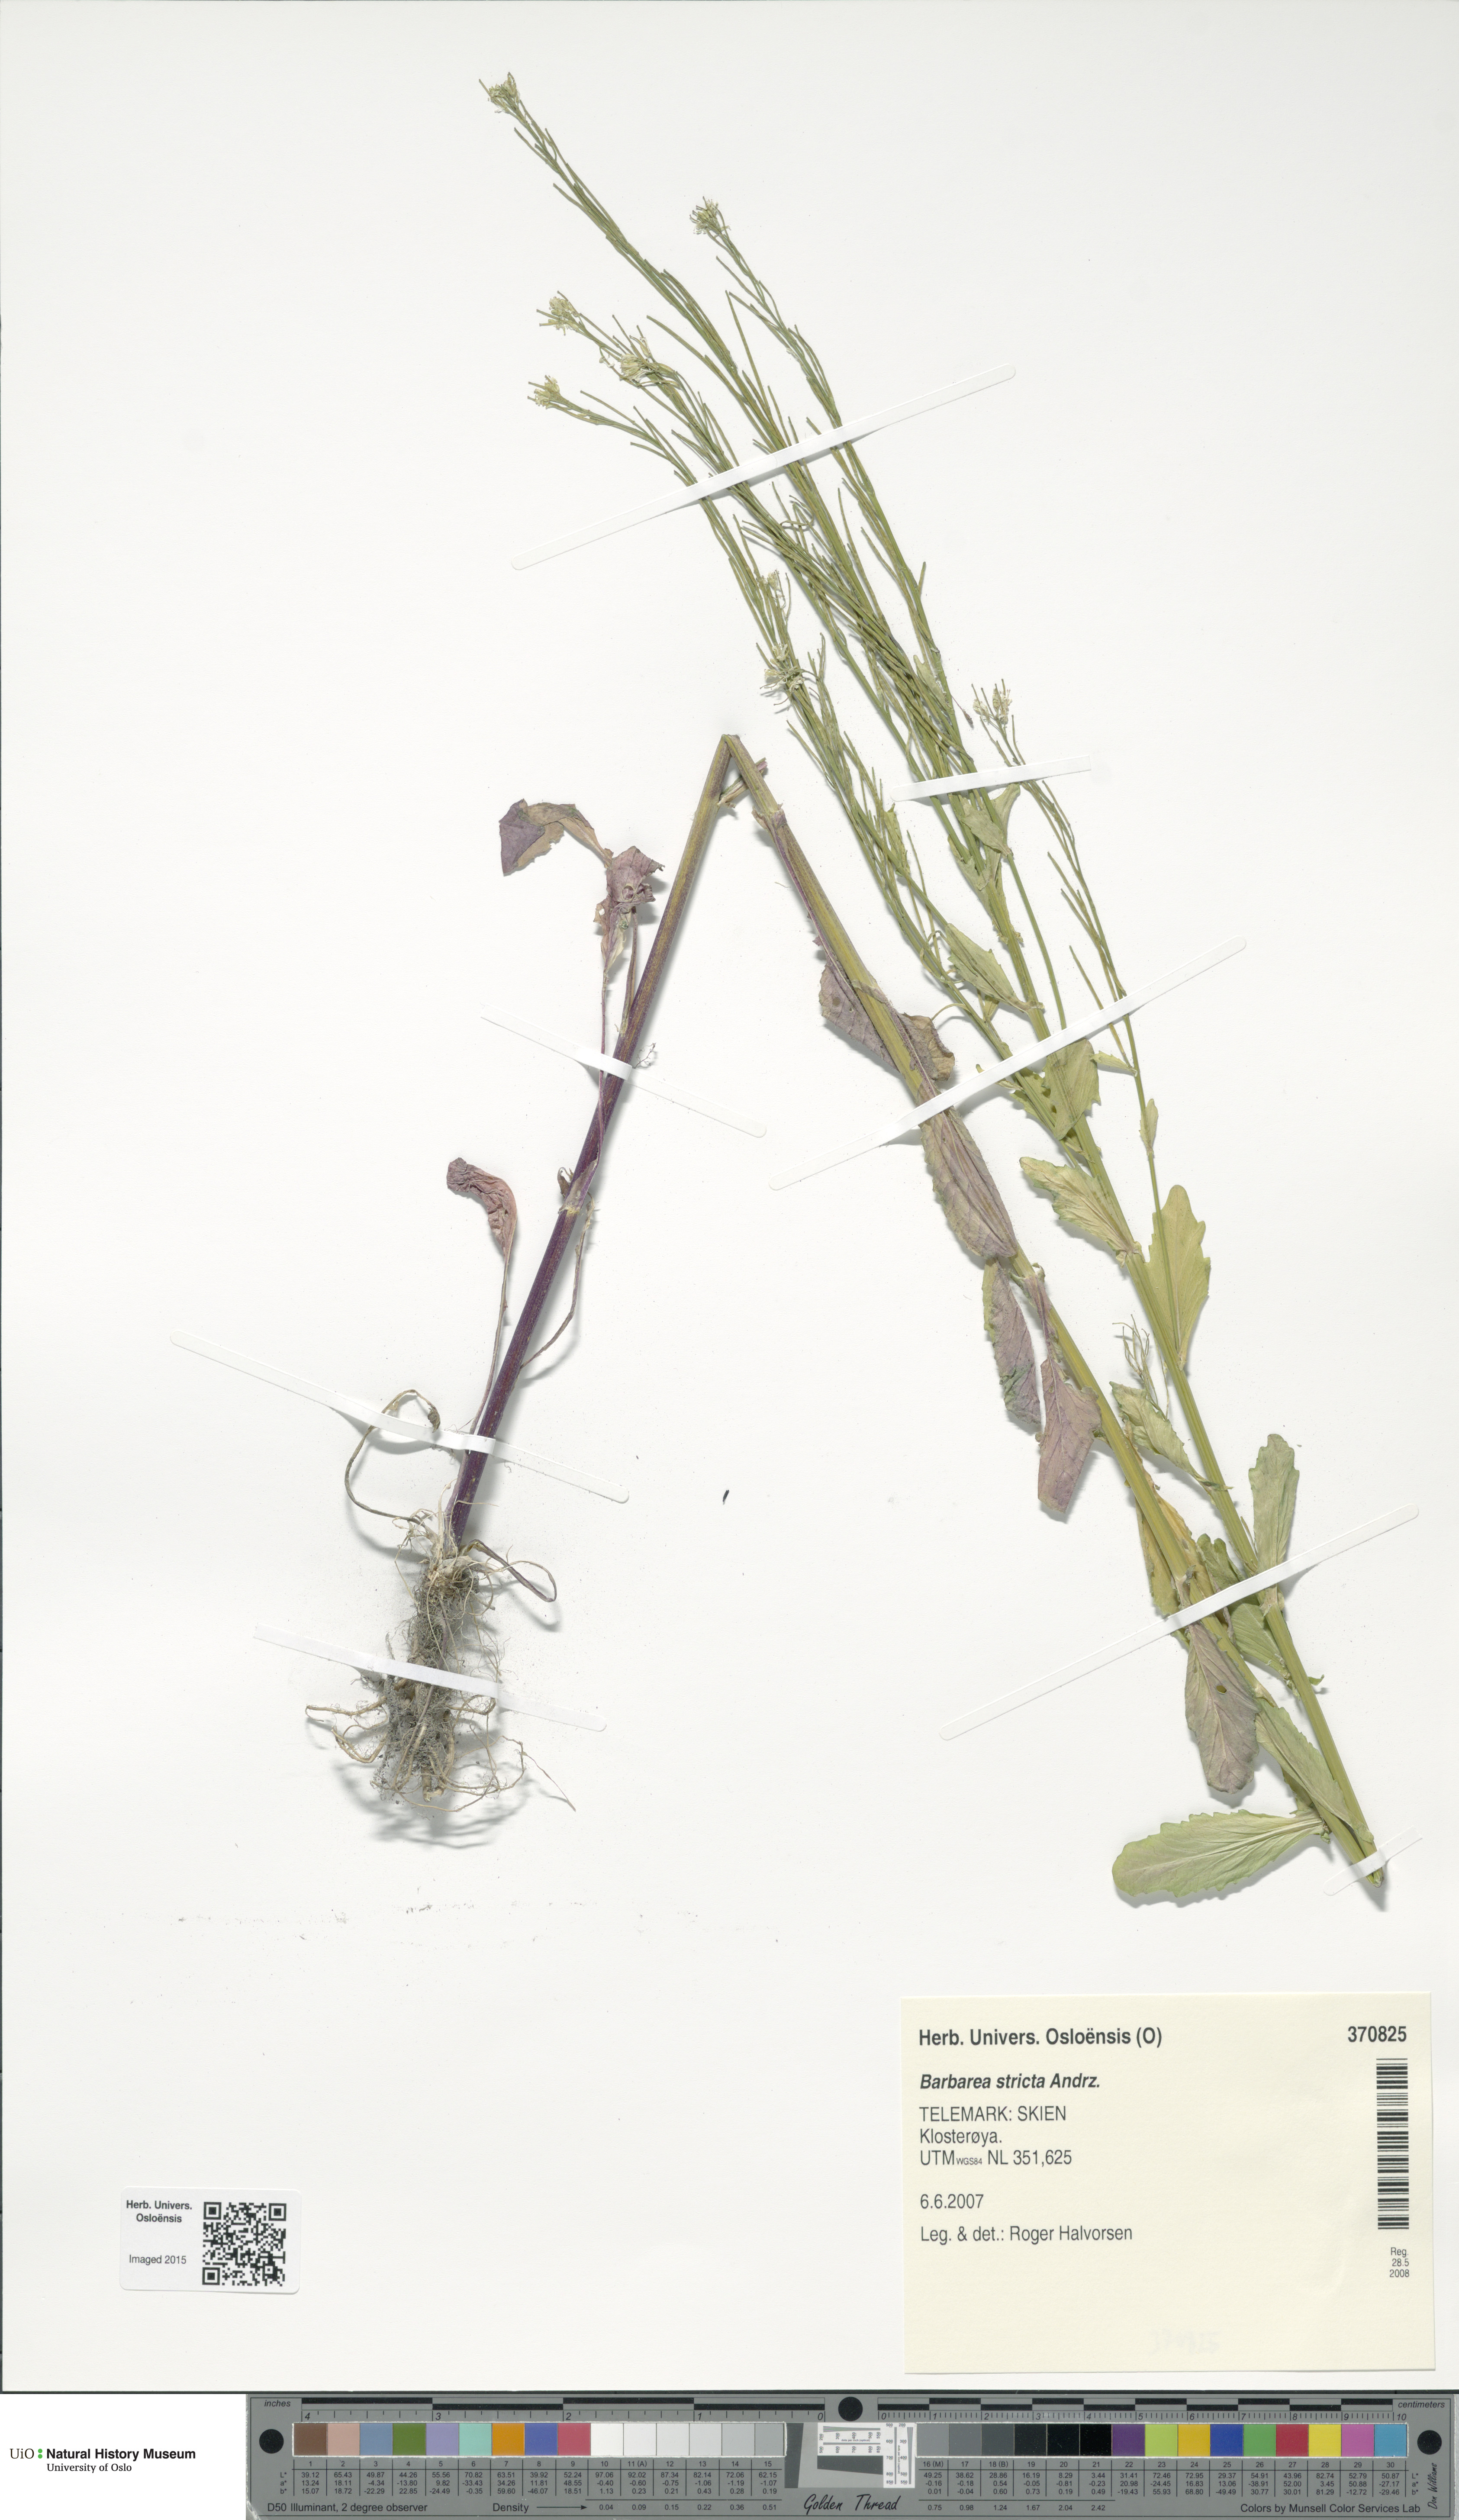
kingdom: Plantae
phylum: Tracheophyta
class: Magnoliopsida
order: Brassicales
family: Brassicaceae
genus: Barbarea
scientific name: Barbarea stricta
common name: Small-flowered winter-cress
